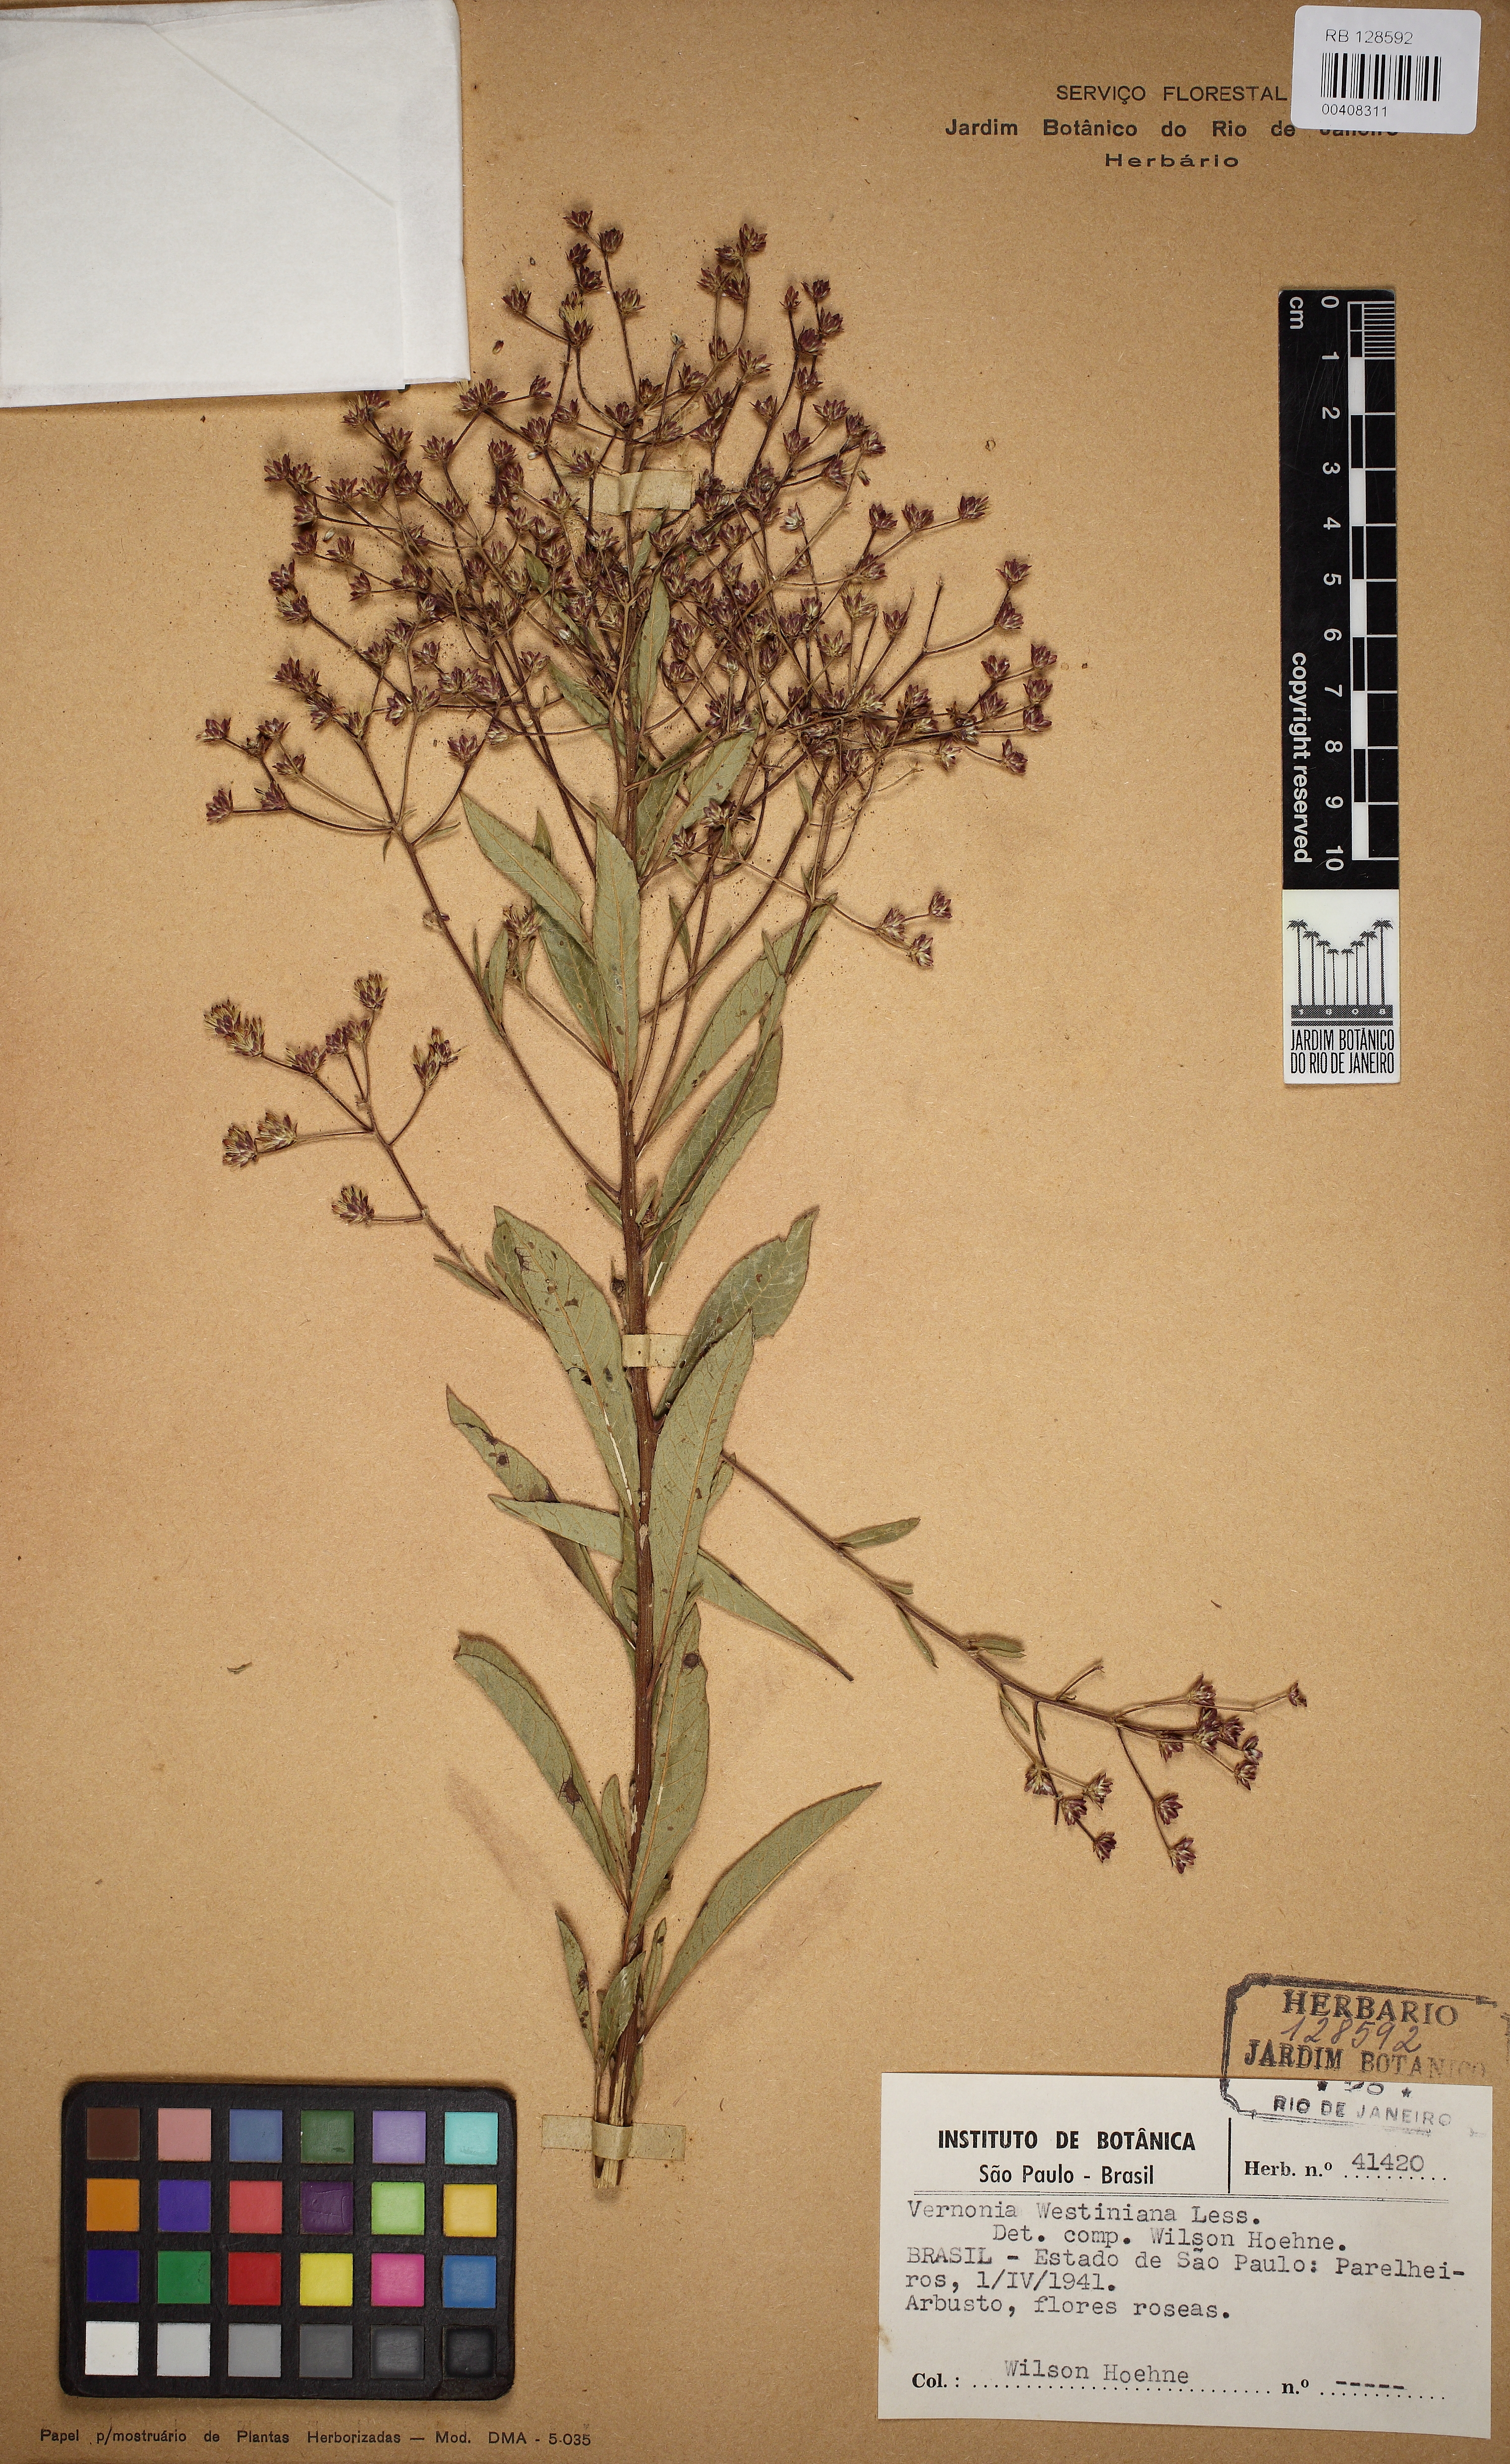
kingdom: Plantae
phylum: Tracheophyta
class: Magnoliopsida
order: Asterales
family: Asteraceae
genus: Vernonanthura
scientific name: Vernonanthura westiniana
